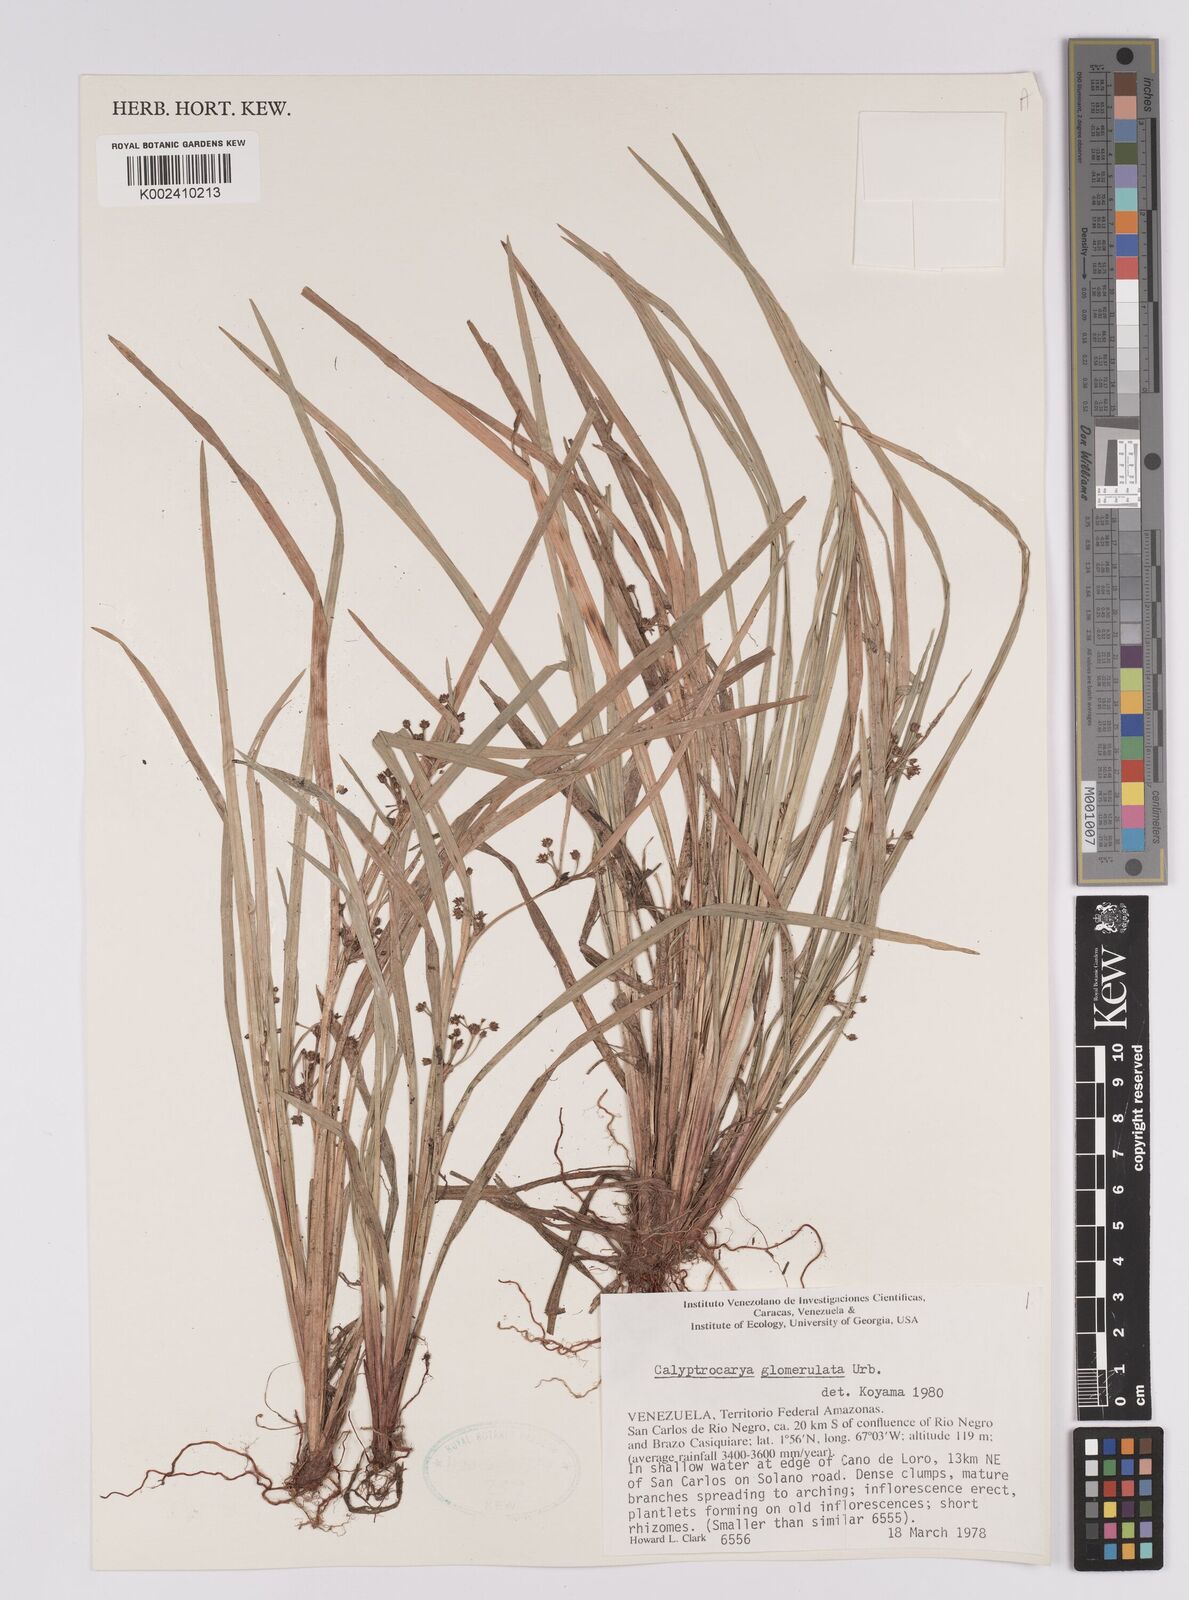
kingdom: Plantae
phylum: Tracheophyta
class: Liliopsida
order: Poales
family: Cyperaceae
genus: Calyptrocarya
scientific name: Calyptrocarya glomerulata
